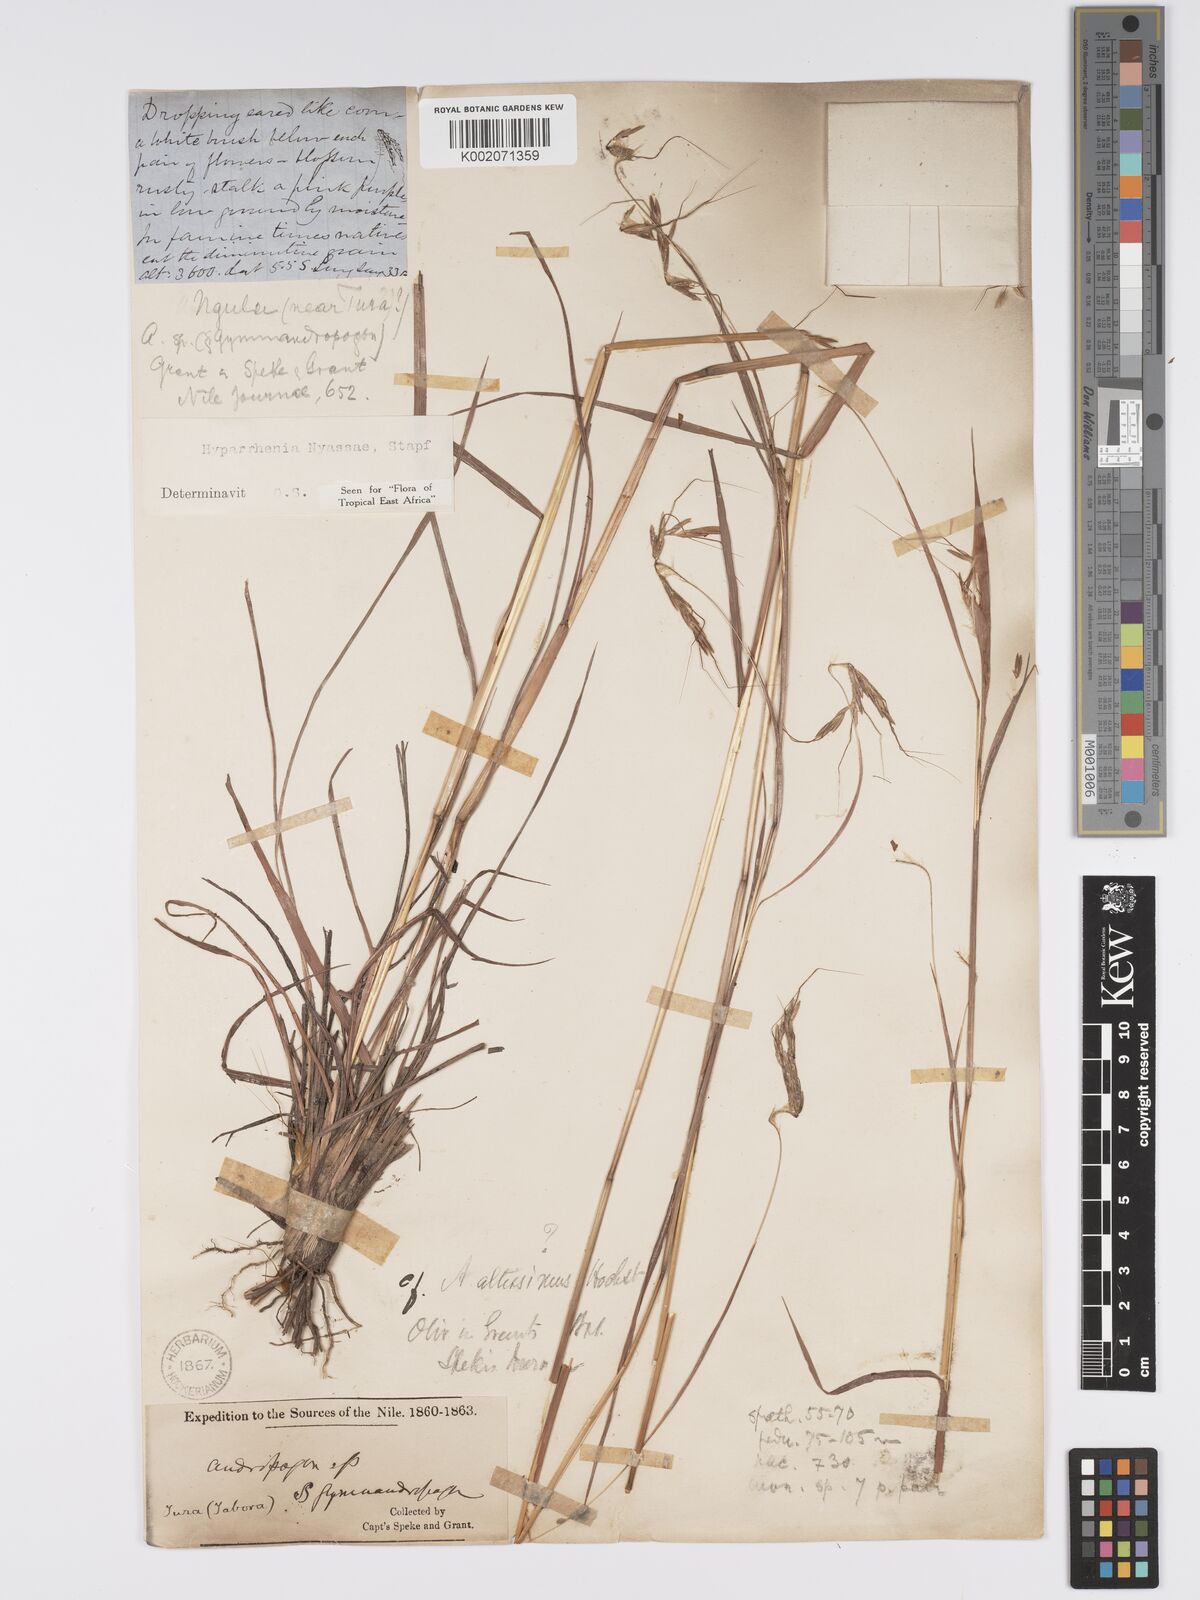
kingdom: Plantae
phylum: Tracheophyta
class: Liliopsida
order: Poales
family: Poaceae
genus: Hyparrhenia
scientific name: Hyparrhenia nyassae
